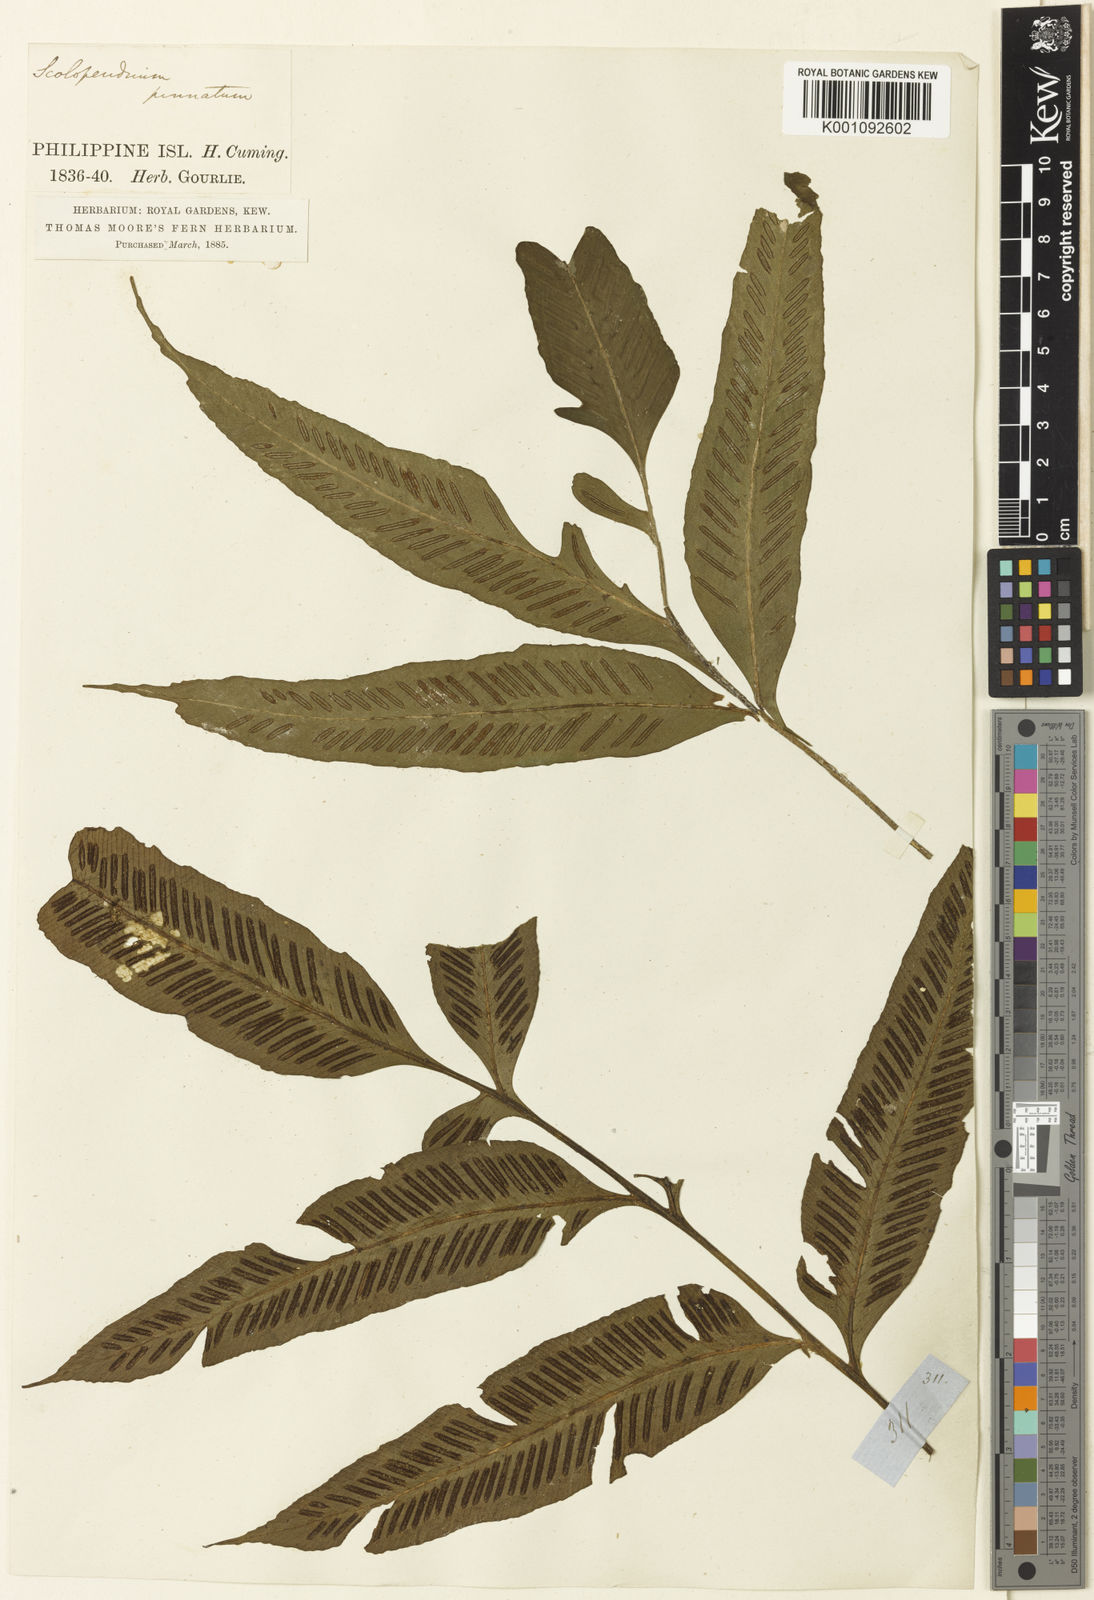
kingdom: Plantae
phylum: Tracheophyta
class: Polypodiopsida
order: Polypodiales
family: Aspleniaceae
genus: Asplenium
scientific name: Asplenium
